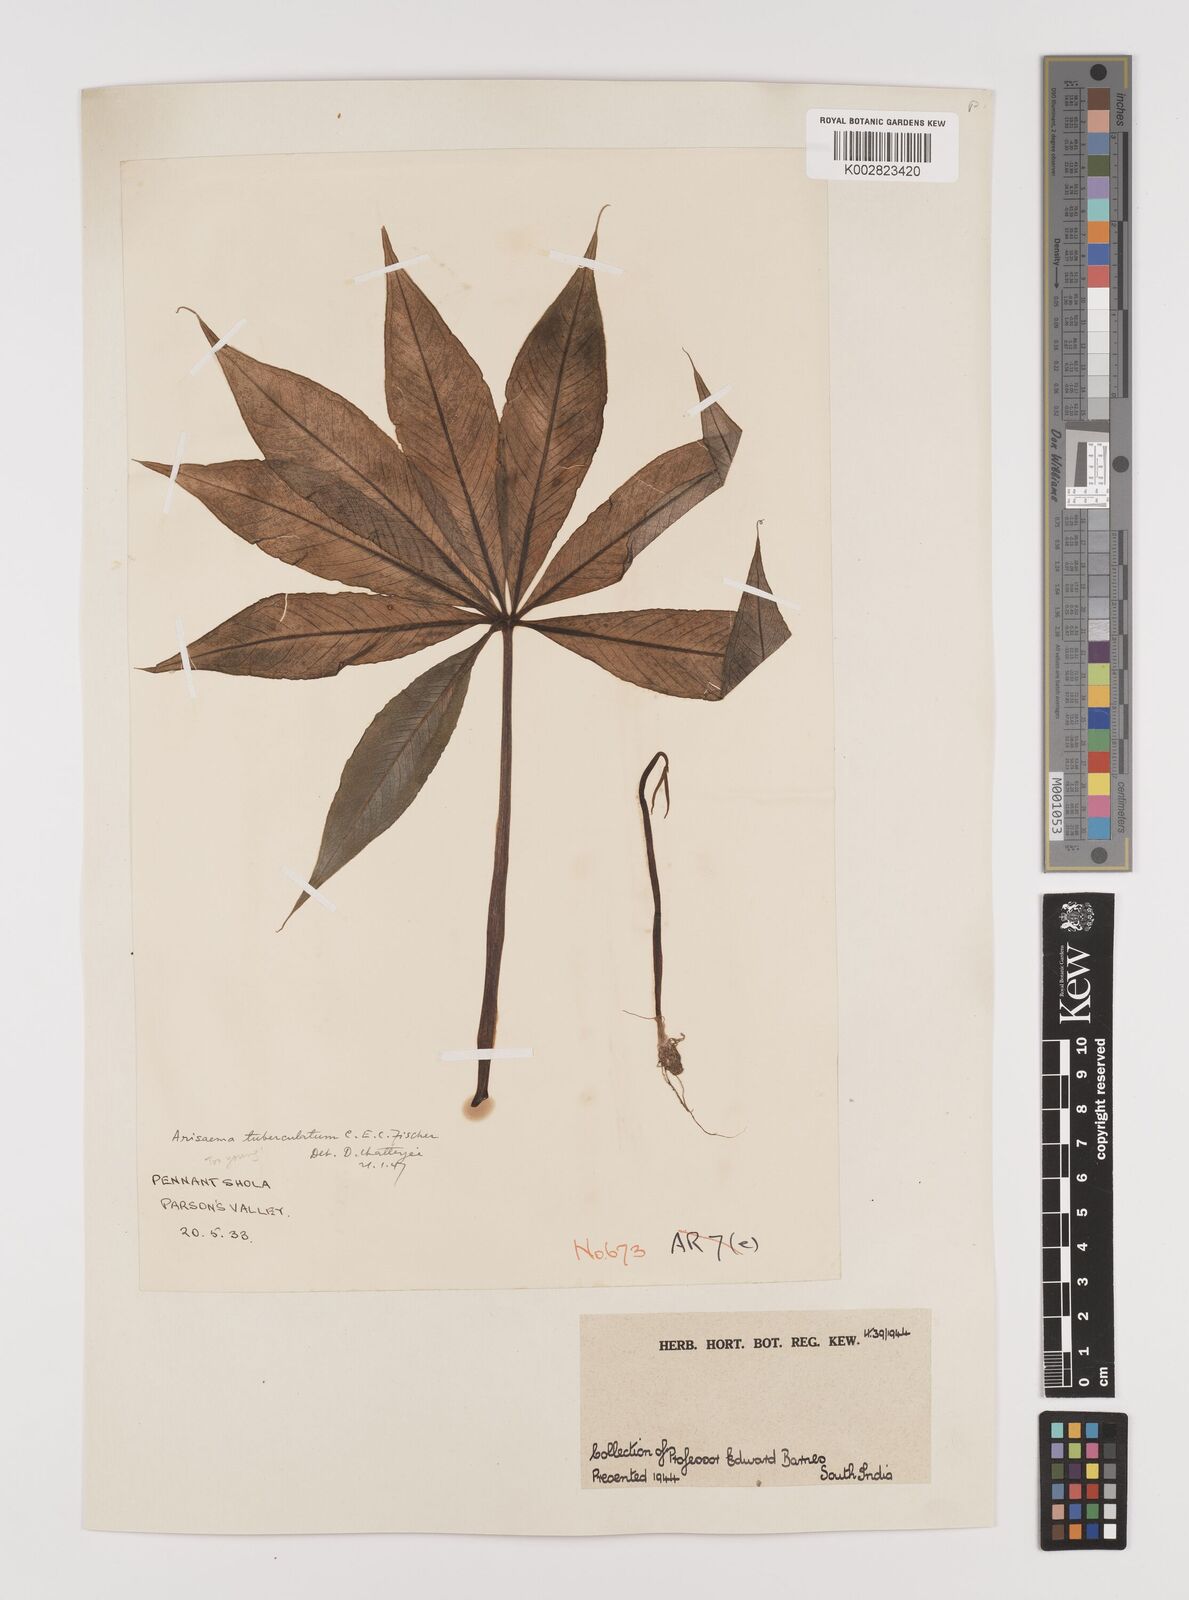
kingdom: Plantae
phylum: Tracheophyta
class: Liliopsida
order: Alismatales
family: Araceae
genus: Arisaema
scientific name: Arisaema tuberculatum
